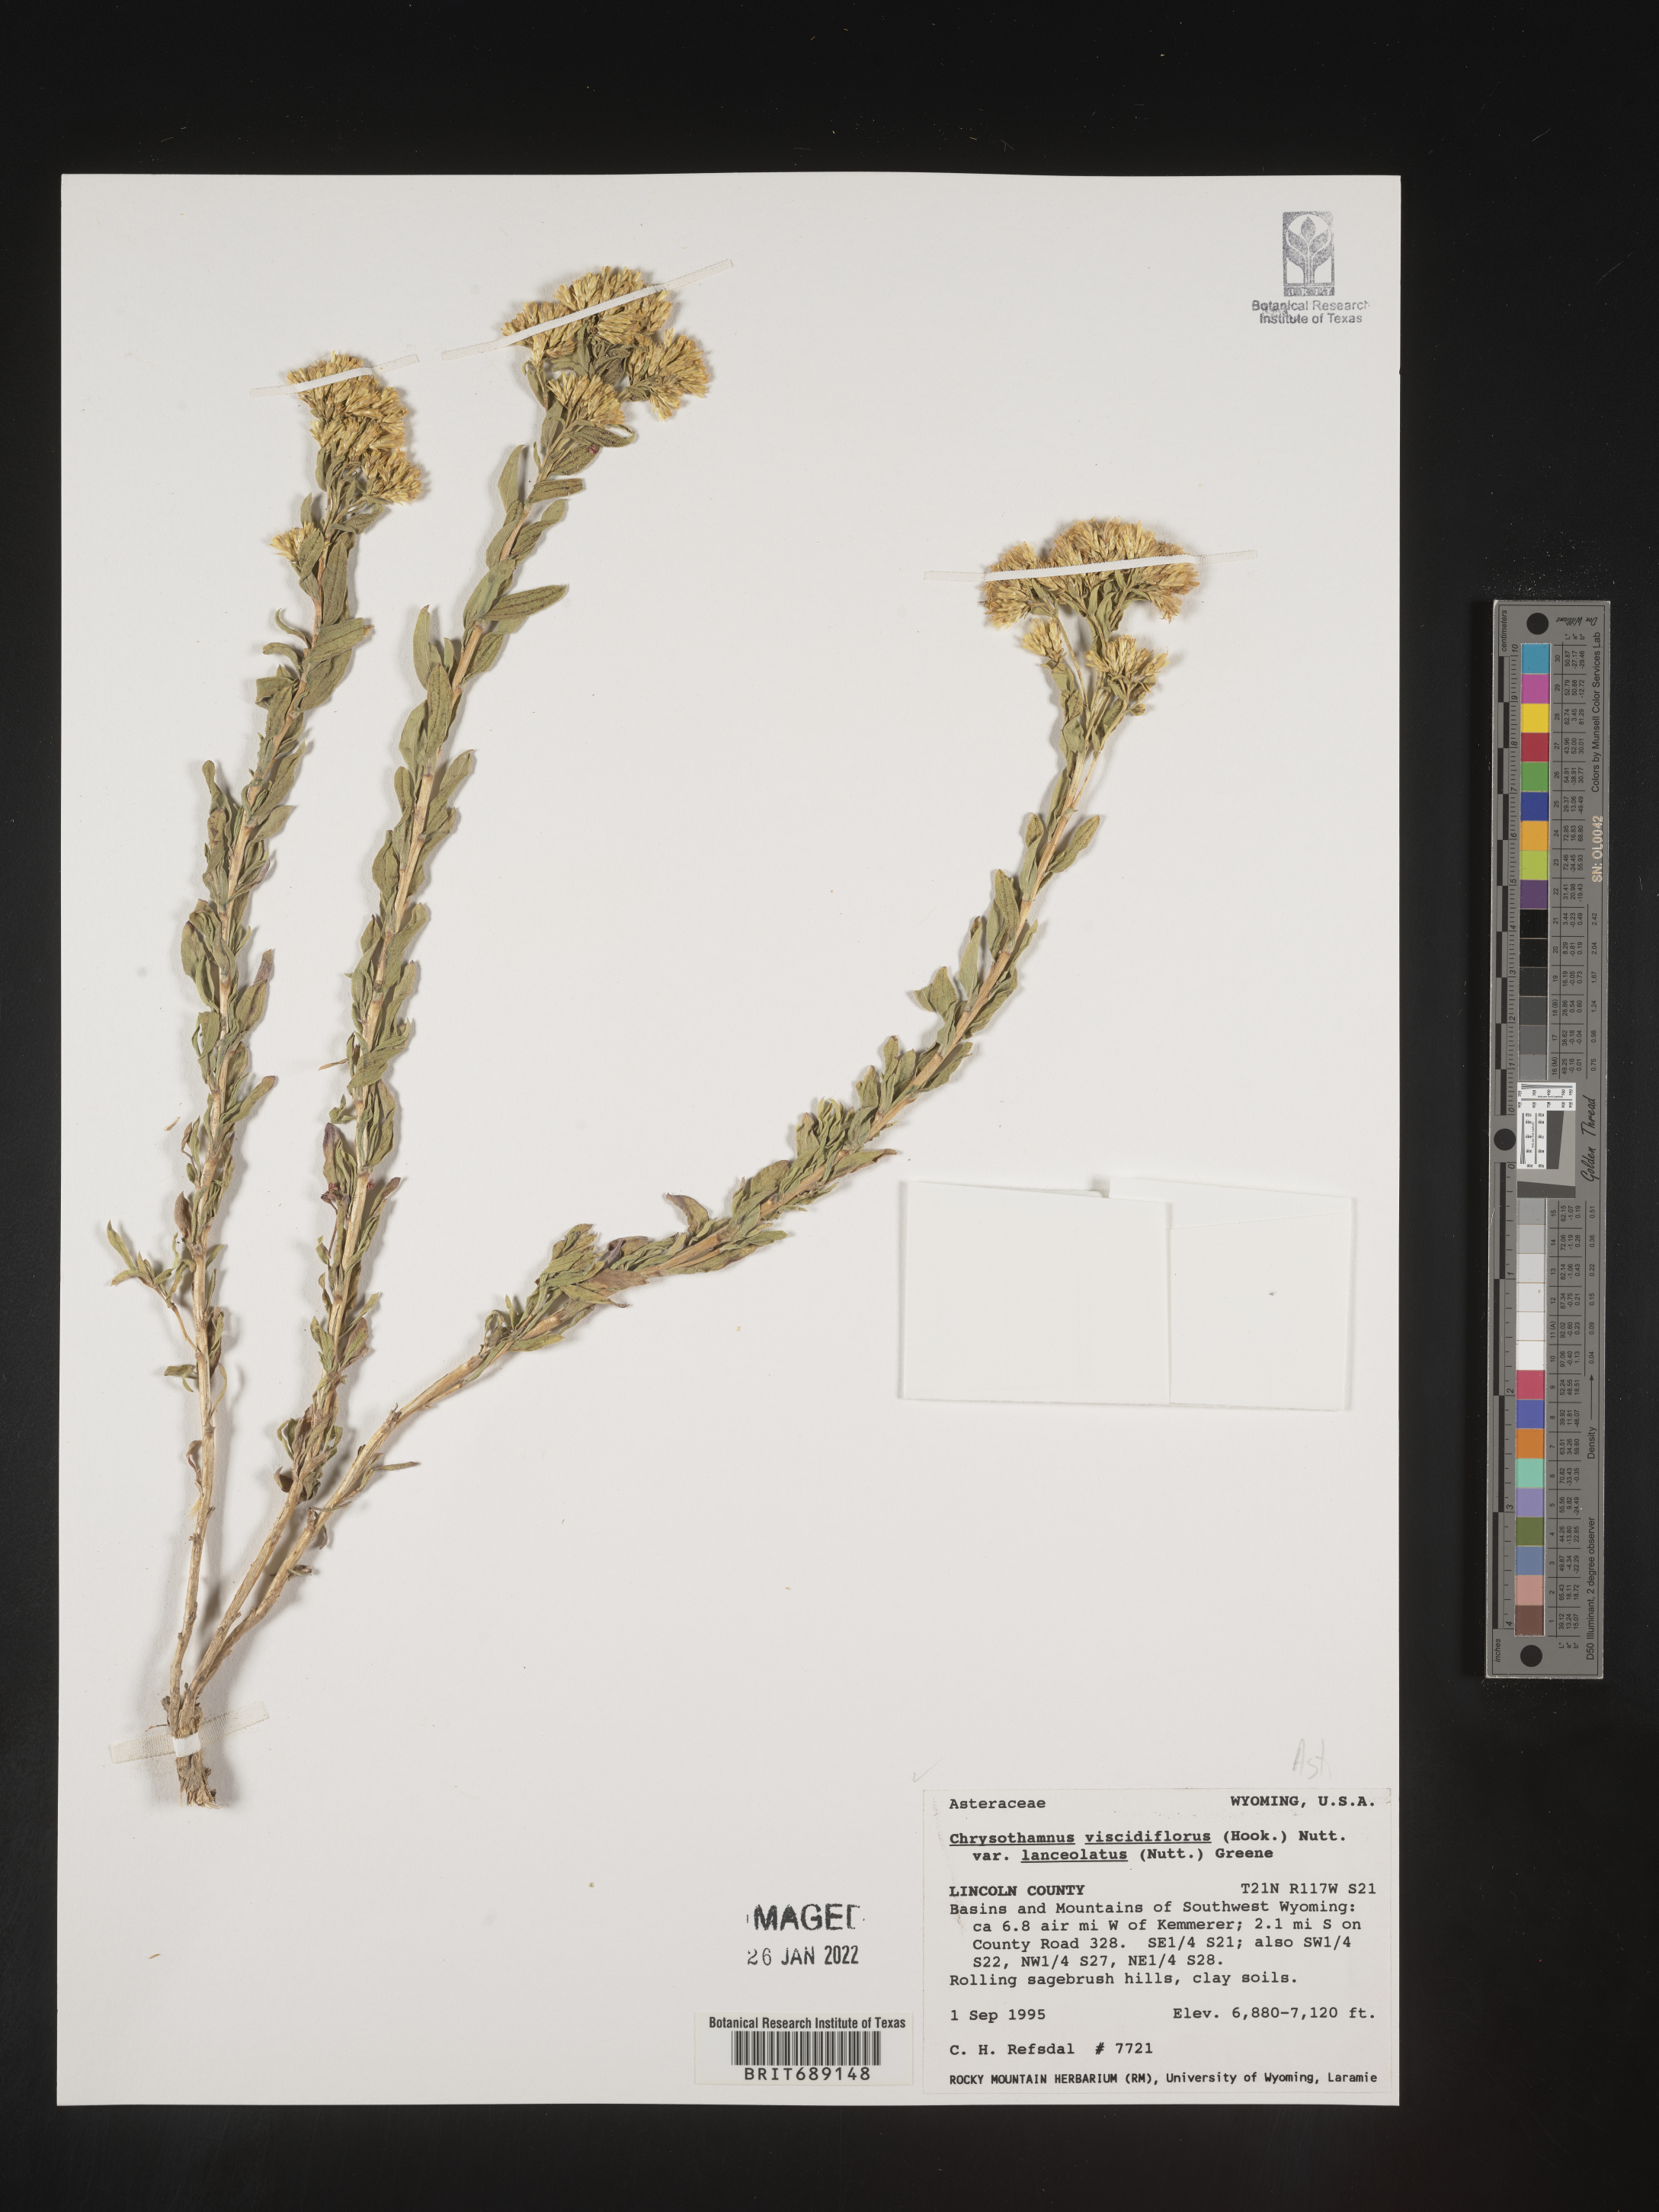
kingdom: Plantae
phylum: Tracheophyta
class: Magnoliopsida
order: Asterales
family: Asteraceae
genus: Chrysothamnus
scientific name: Chrysothamnus viscidiflorus
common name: Yellow rabbitbrush
